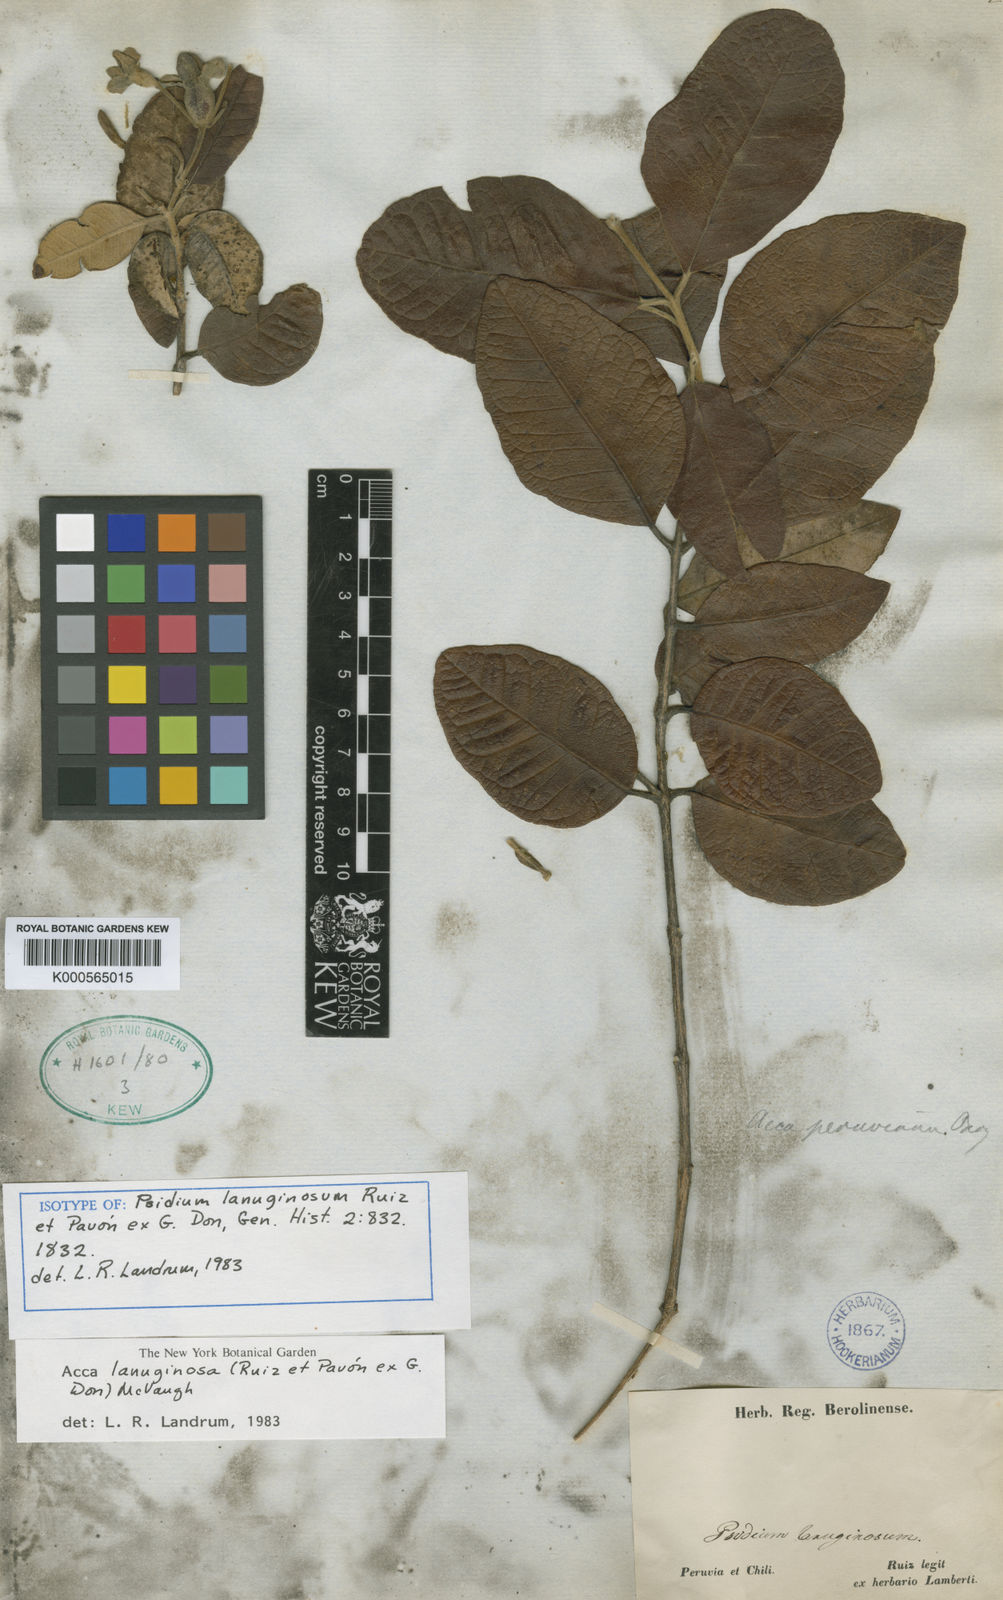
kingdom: Plantae
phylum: Tracheophyta
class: Magnoliopsida
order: Myrtales
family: Myrtaceae
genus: Acca
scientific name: Acca lanuginosa
